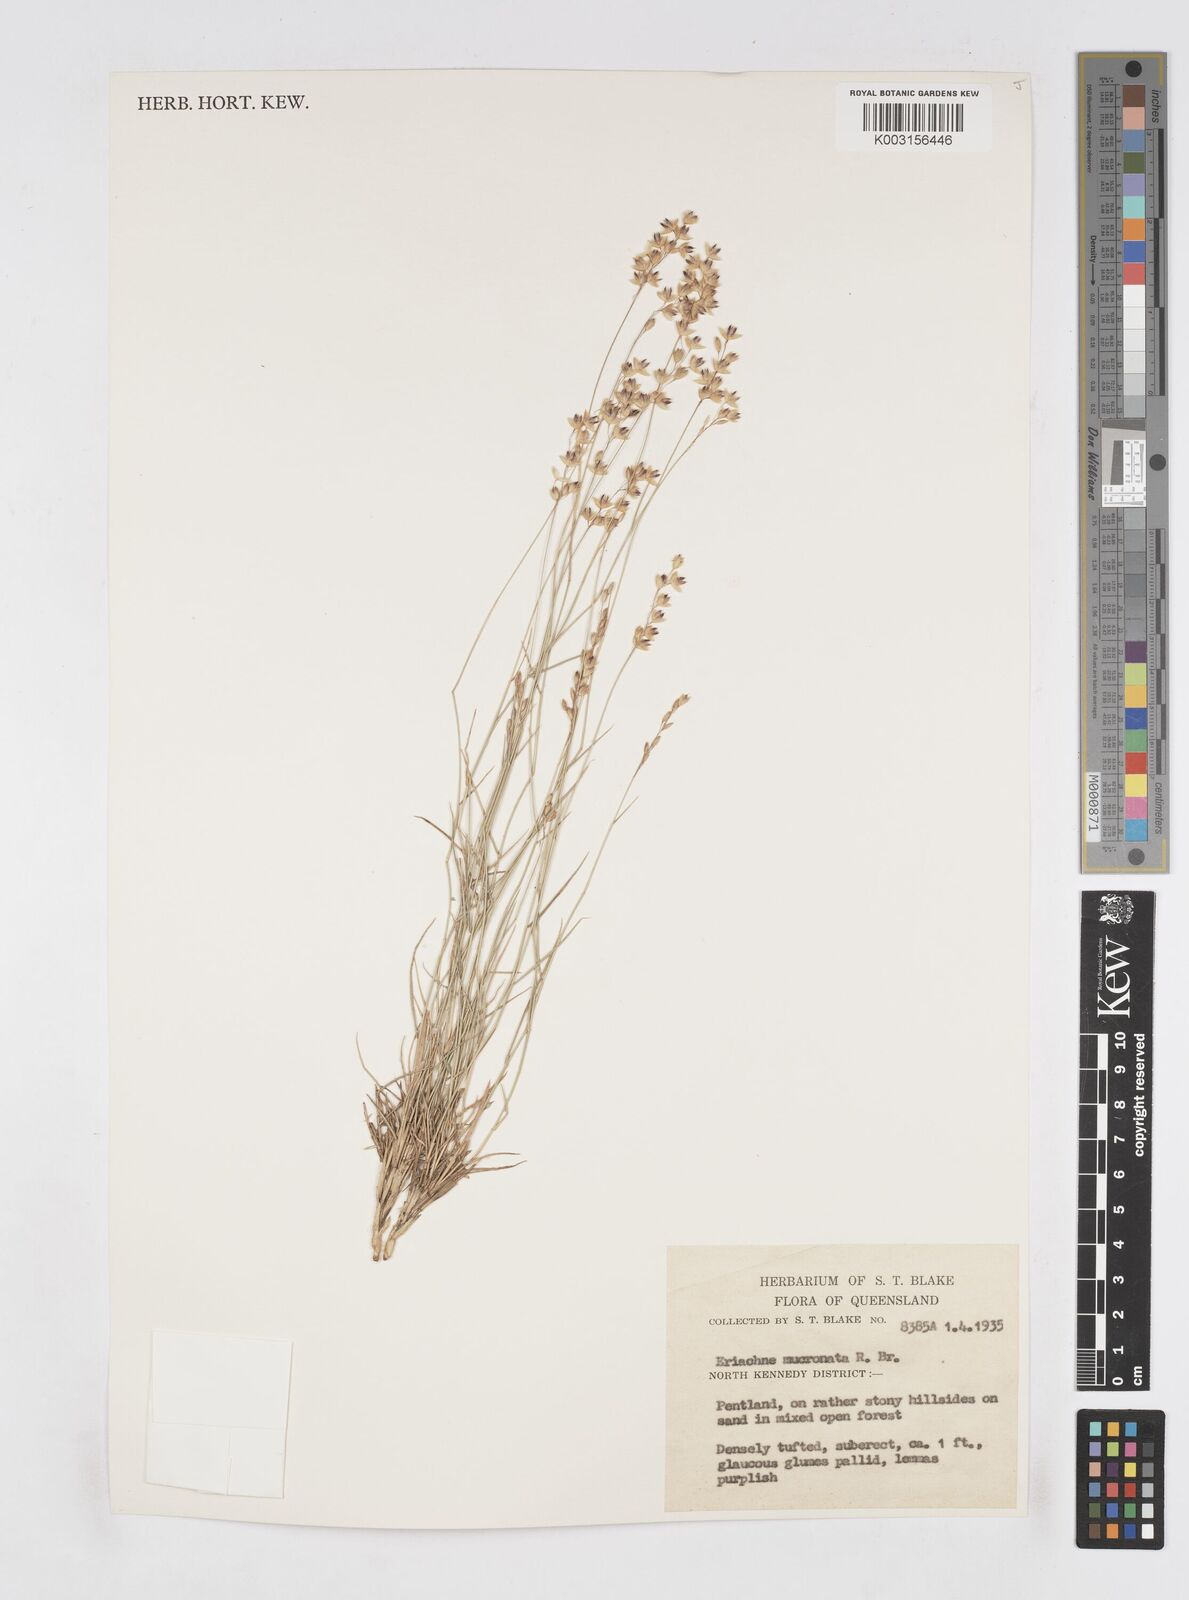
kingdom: Plantae
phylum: Tracheophyta
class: Liliopsida
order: Poales
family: Poaceae
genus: Eriachne
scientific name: Eriachne mucronata
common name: Mountain wanderrie grass
